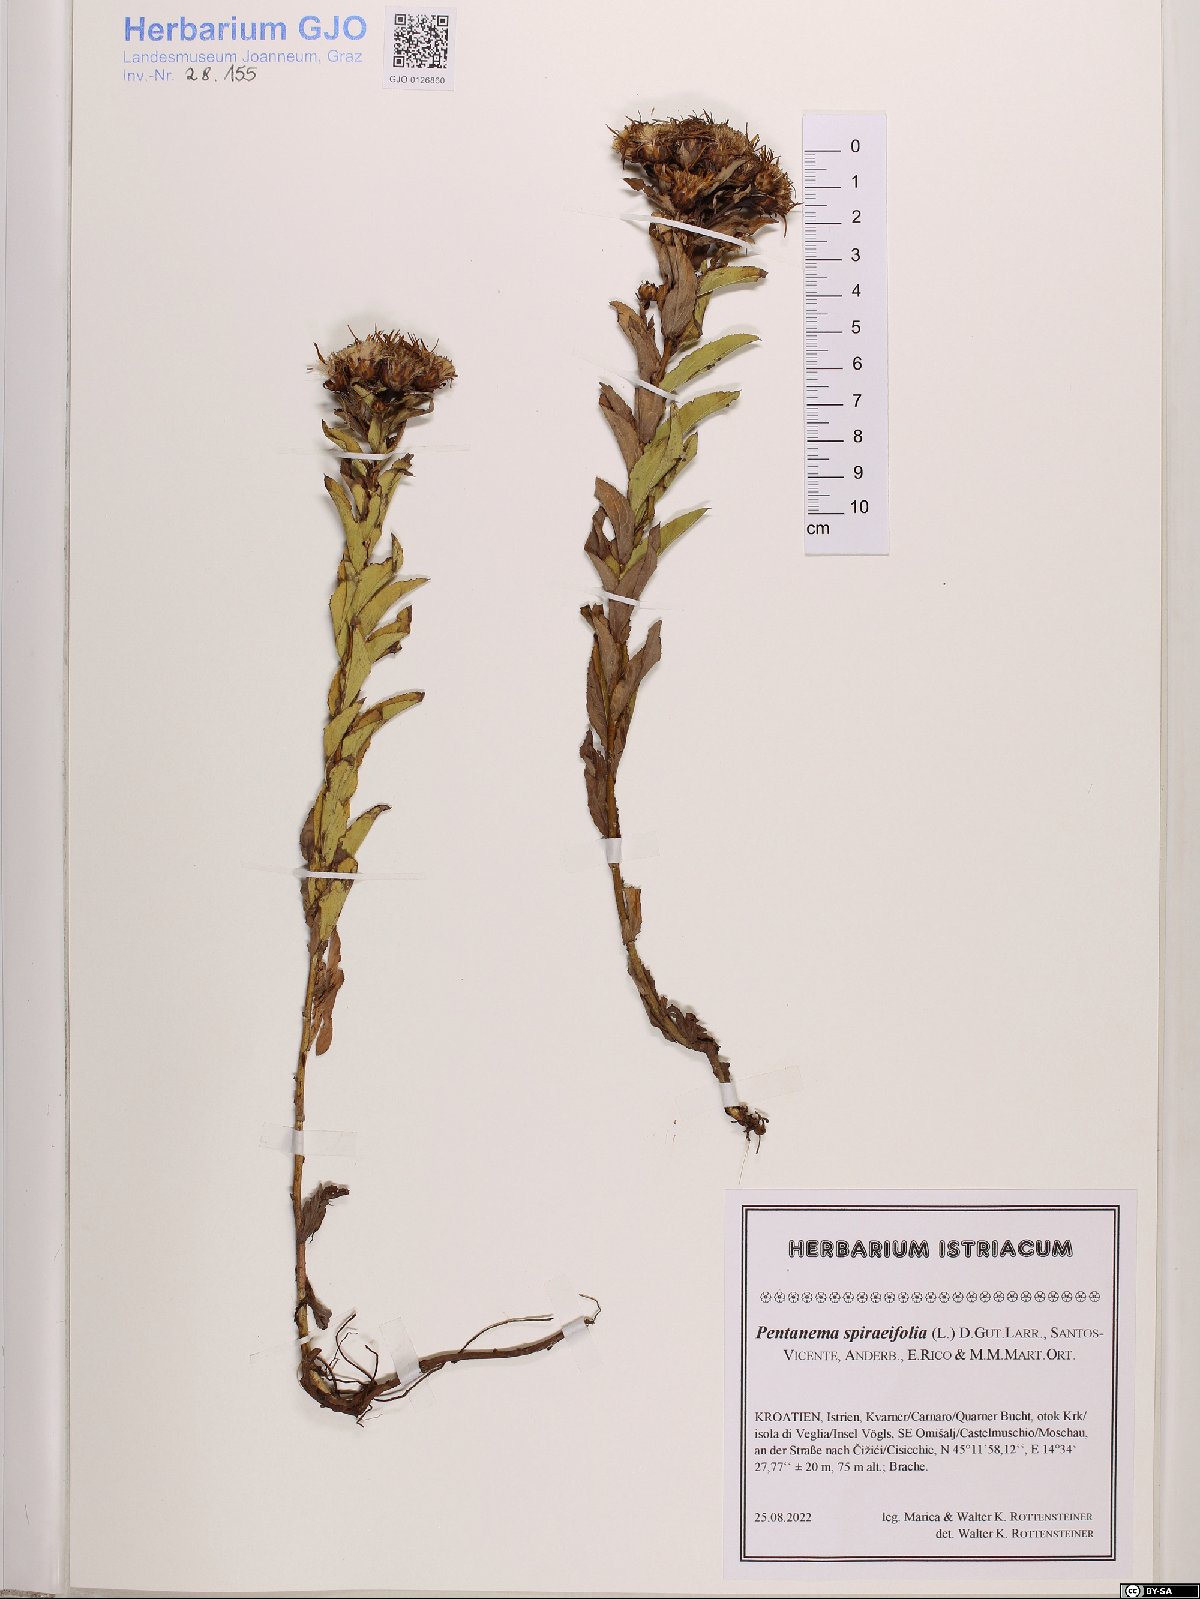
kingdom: Plantae
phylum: Tracheophyta
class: Magnoliopsida
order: Asterales
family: Asteraceae
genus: Pentanema
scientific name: Pentanema spiraeifolium
